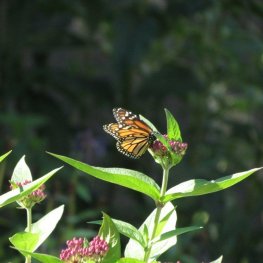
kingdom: Animalia
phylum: Arthropoda
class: Insecta
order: Lepidoptera
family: Nymphalidae
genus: Danaus
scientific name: Danaus plexippus
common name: Monarch
